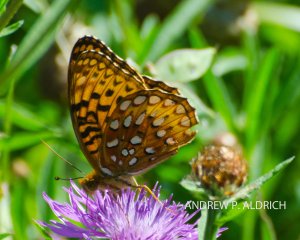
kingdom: Animalia
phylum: Arthropoda
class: Insecta
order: Lepidoptera
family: Nymphalidae
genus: Speyeria
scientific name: Speyeria
